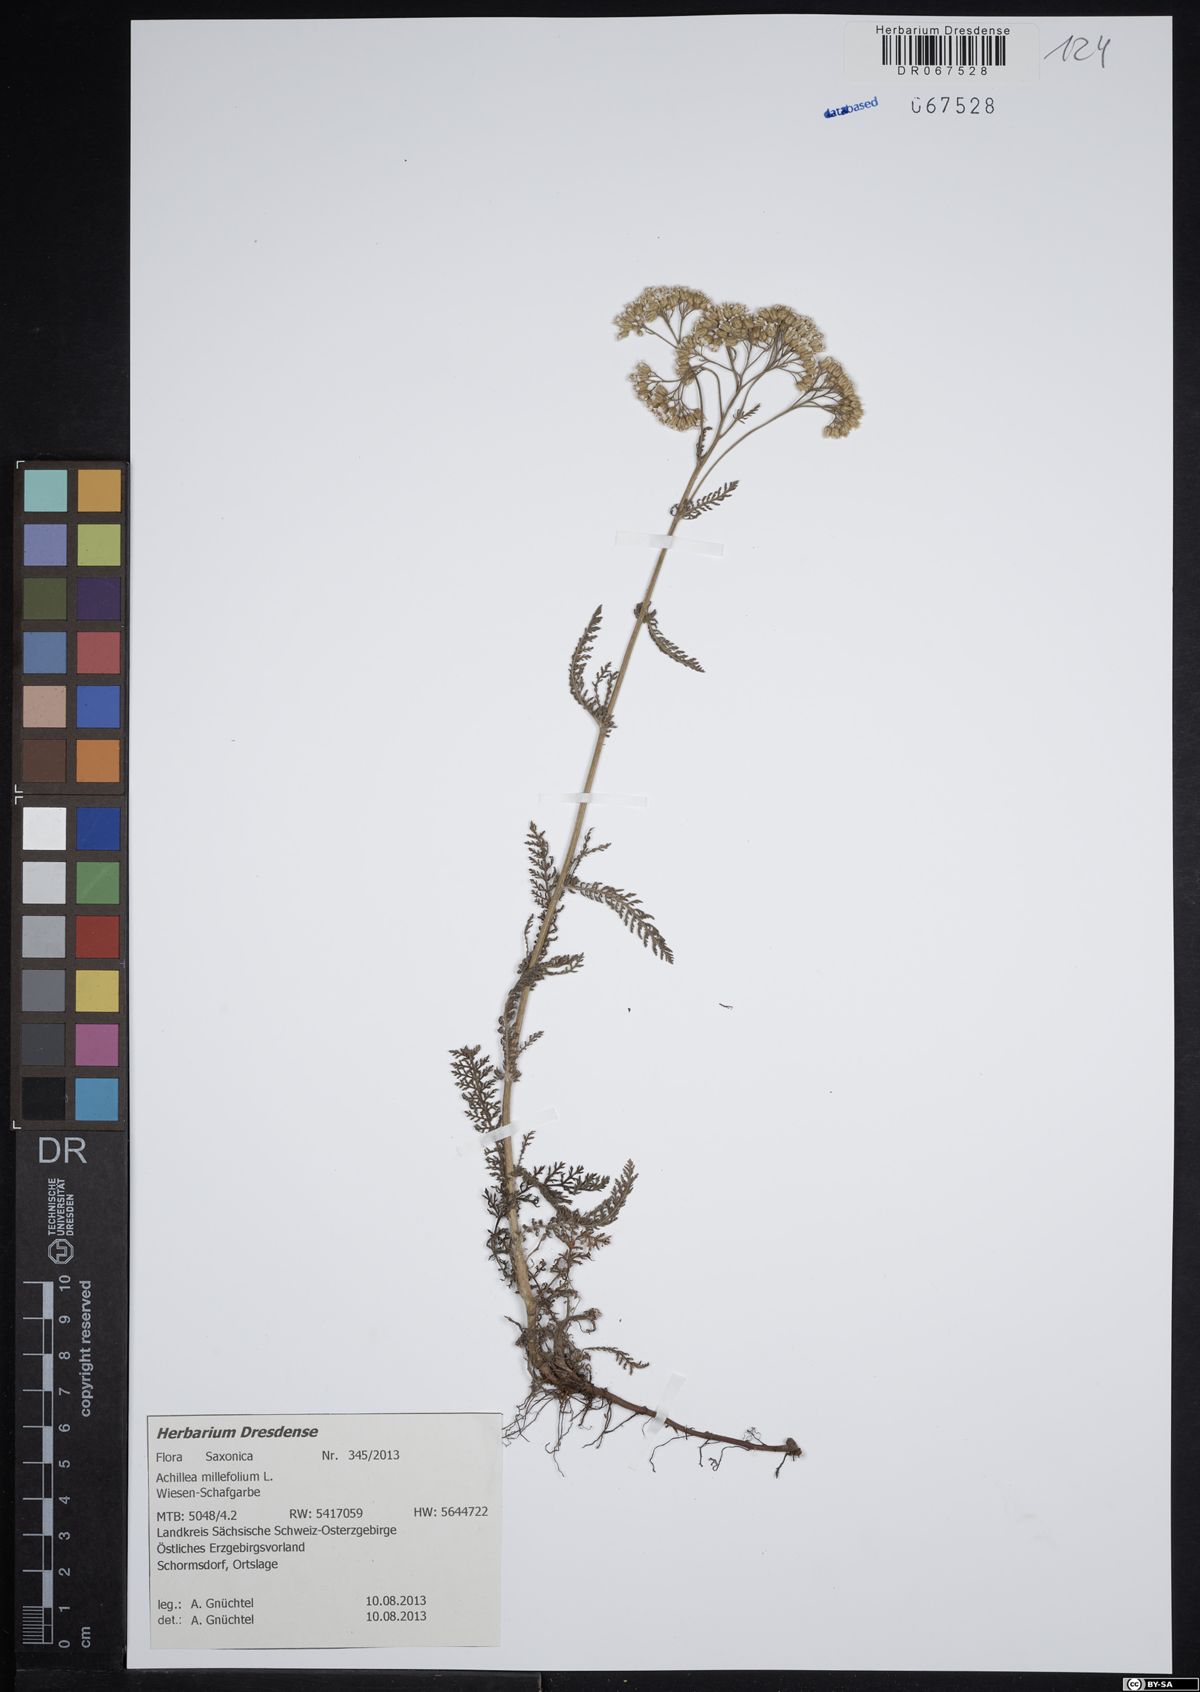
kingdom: Plantae
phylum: Tracheophyta
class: Magnoliopsida
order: Asterales
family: Asteraceae
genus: Achillea
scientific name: Achillea millefolium
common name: Yarrow
